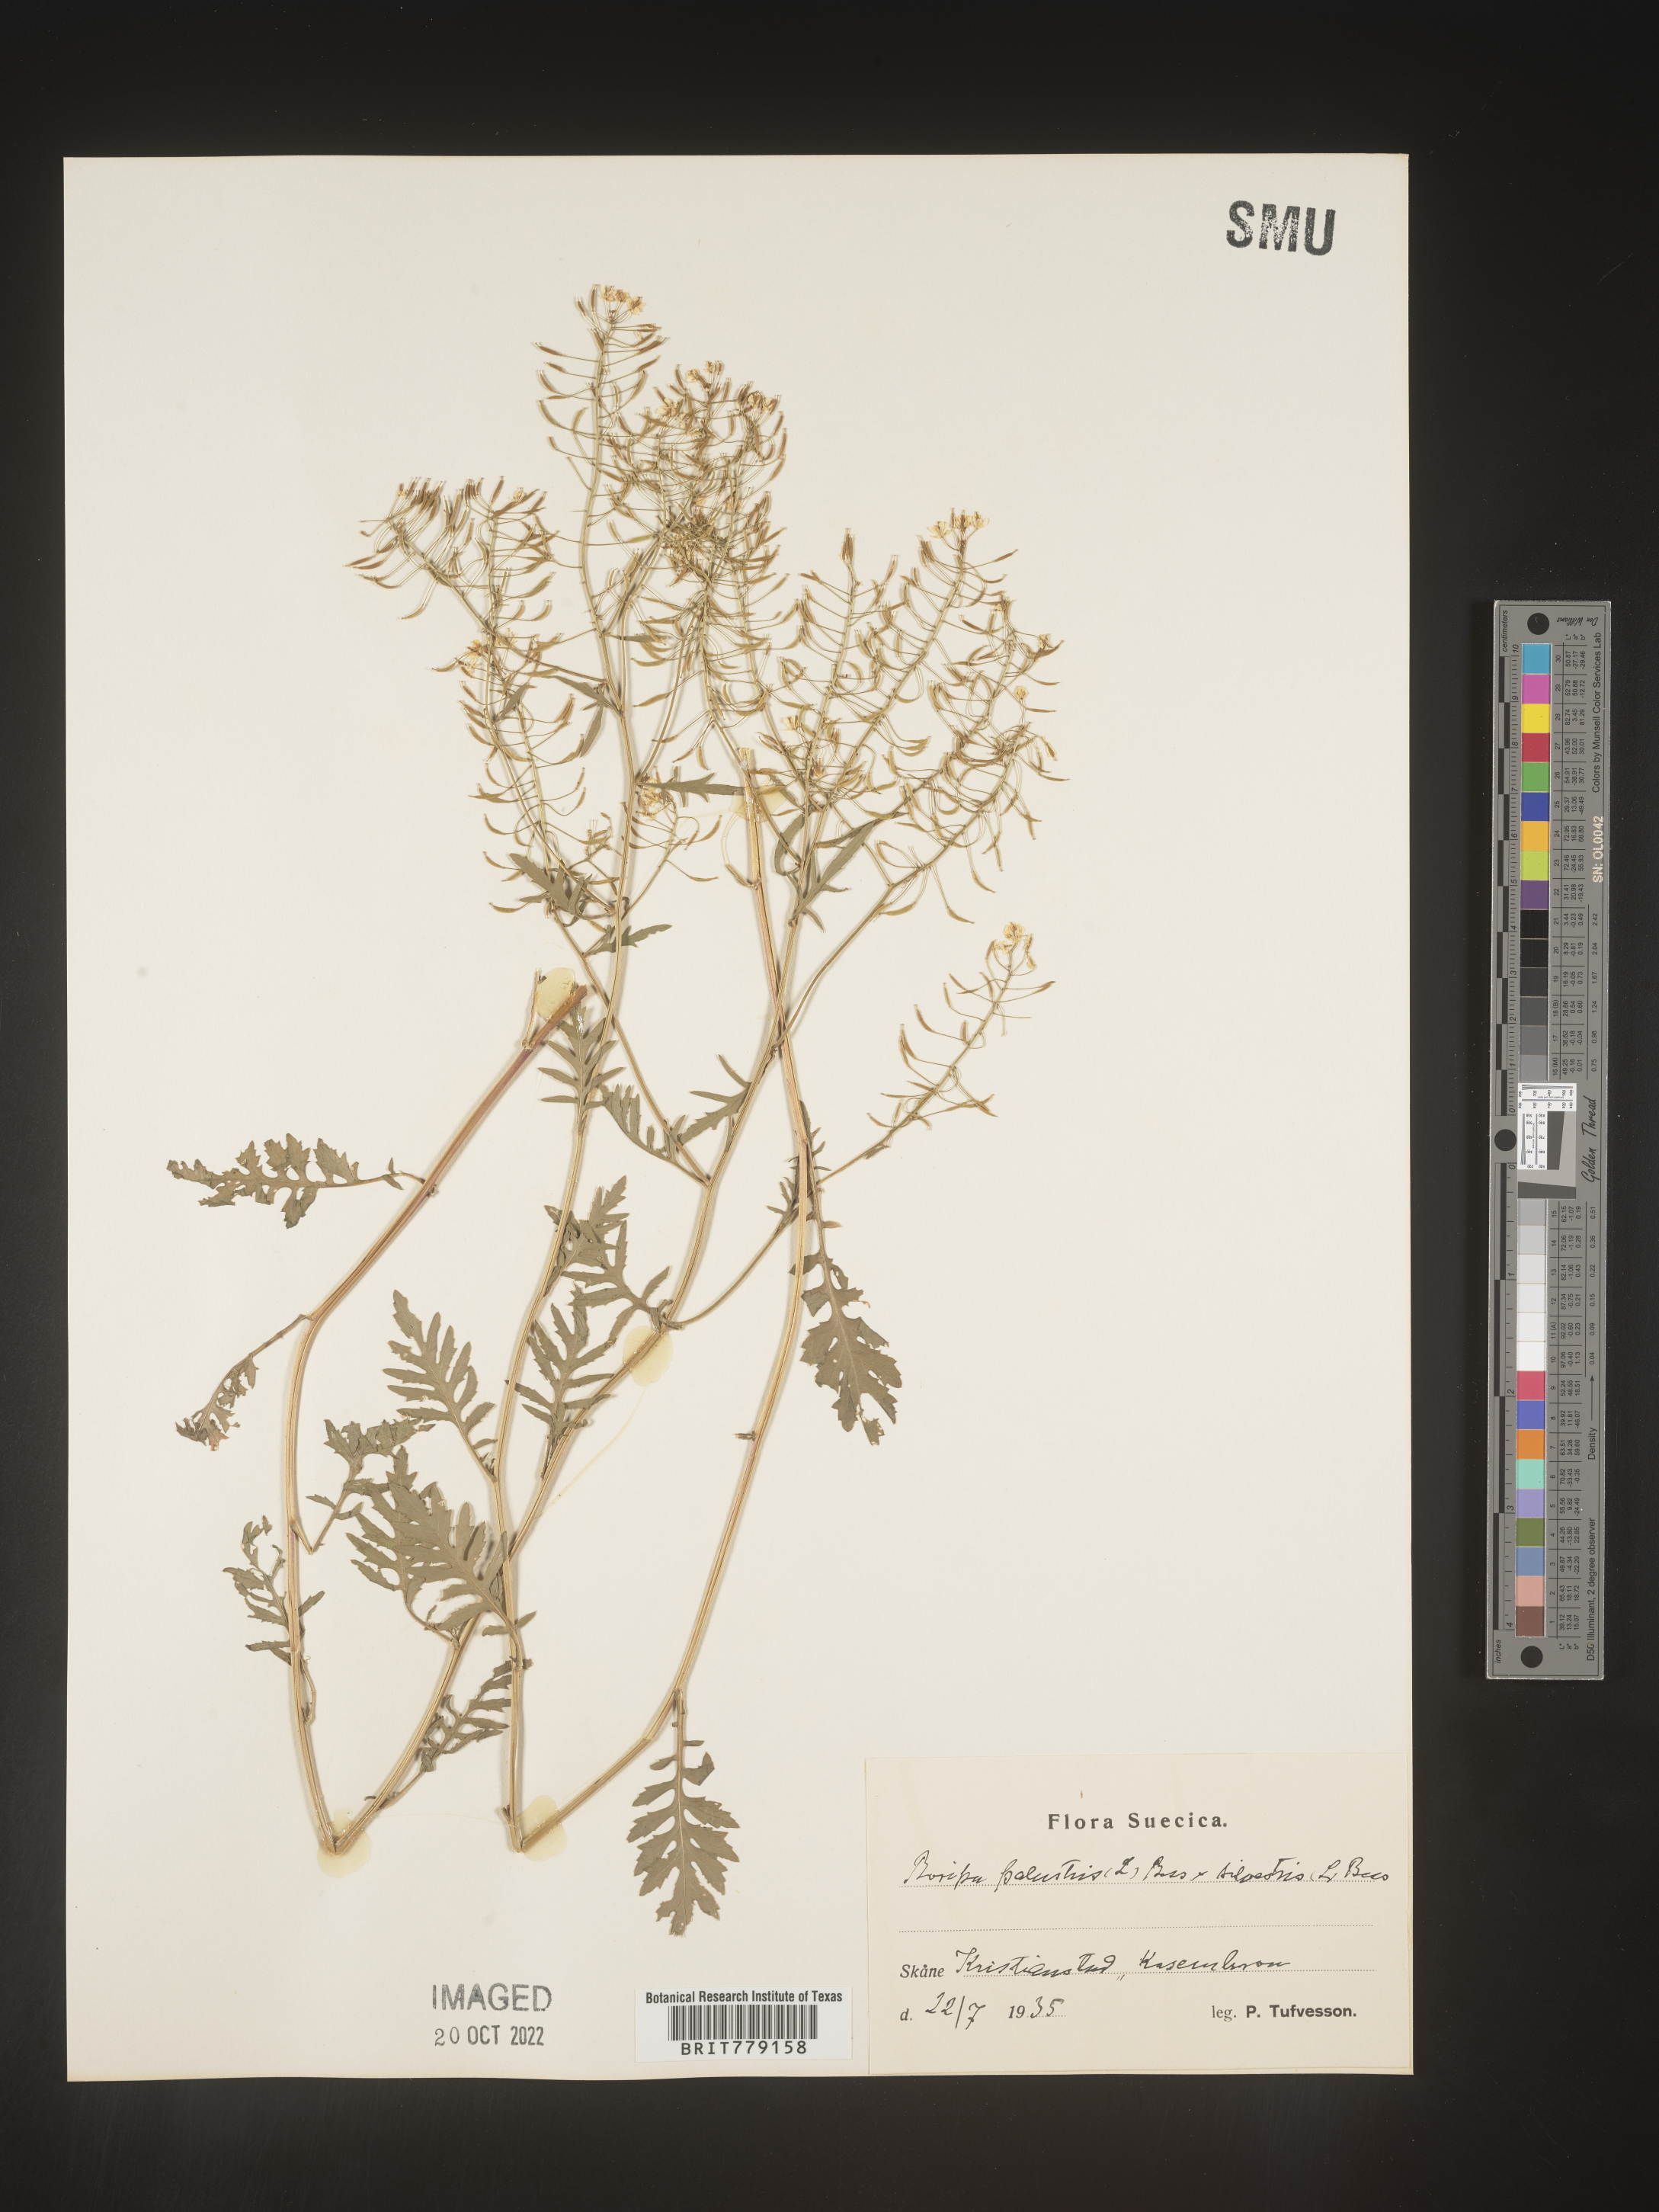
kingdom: Plantae
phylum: Tracheophyta
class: Magnoliopsida
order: Brassicales
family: Brassicaceae
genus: Rorippa
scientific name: Rorippa
